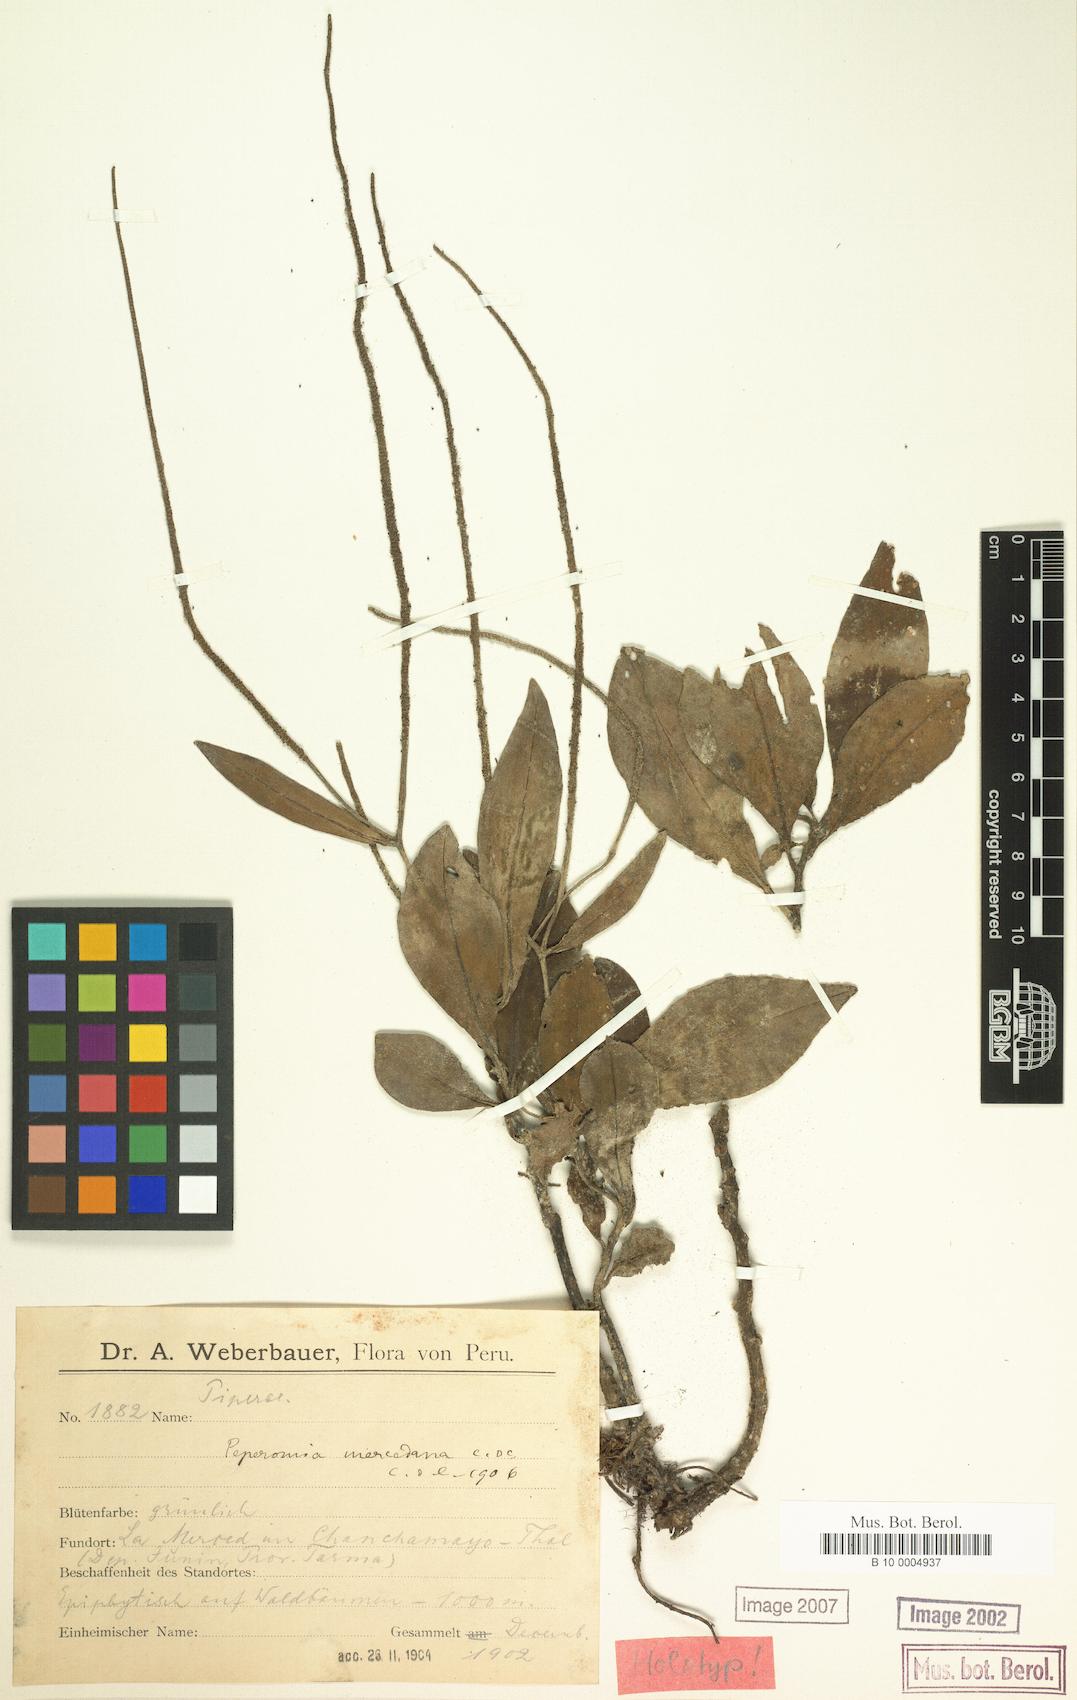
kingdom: Plantae
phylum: Tracheophyta
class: Magnoliopsida
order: Piperales
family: Piperaceae
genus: Peperomia
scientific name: Peperomia mercedana
